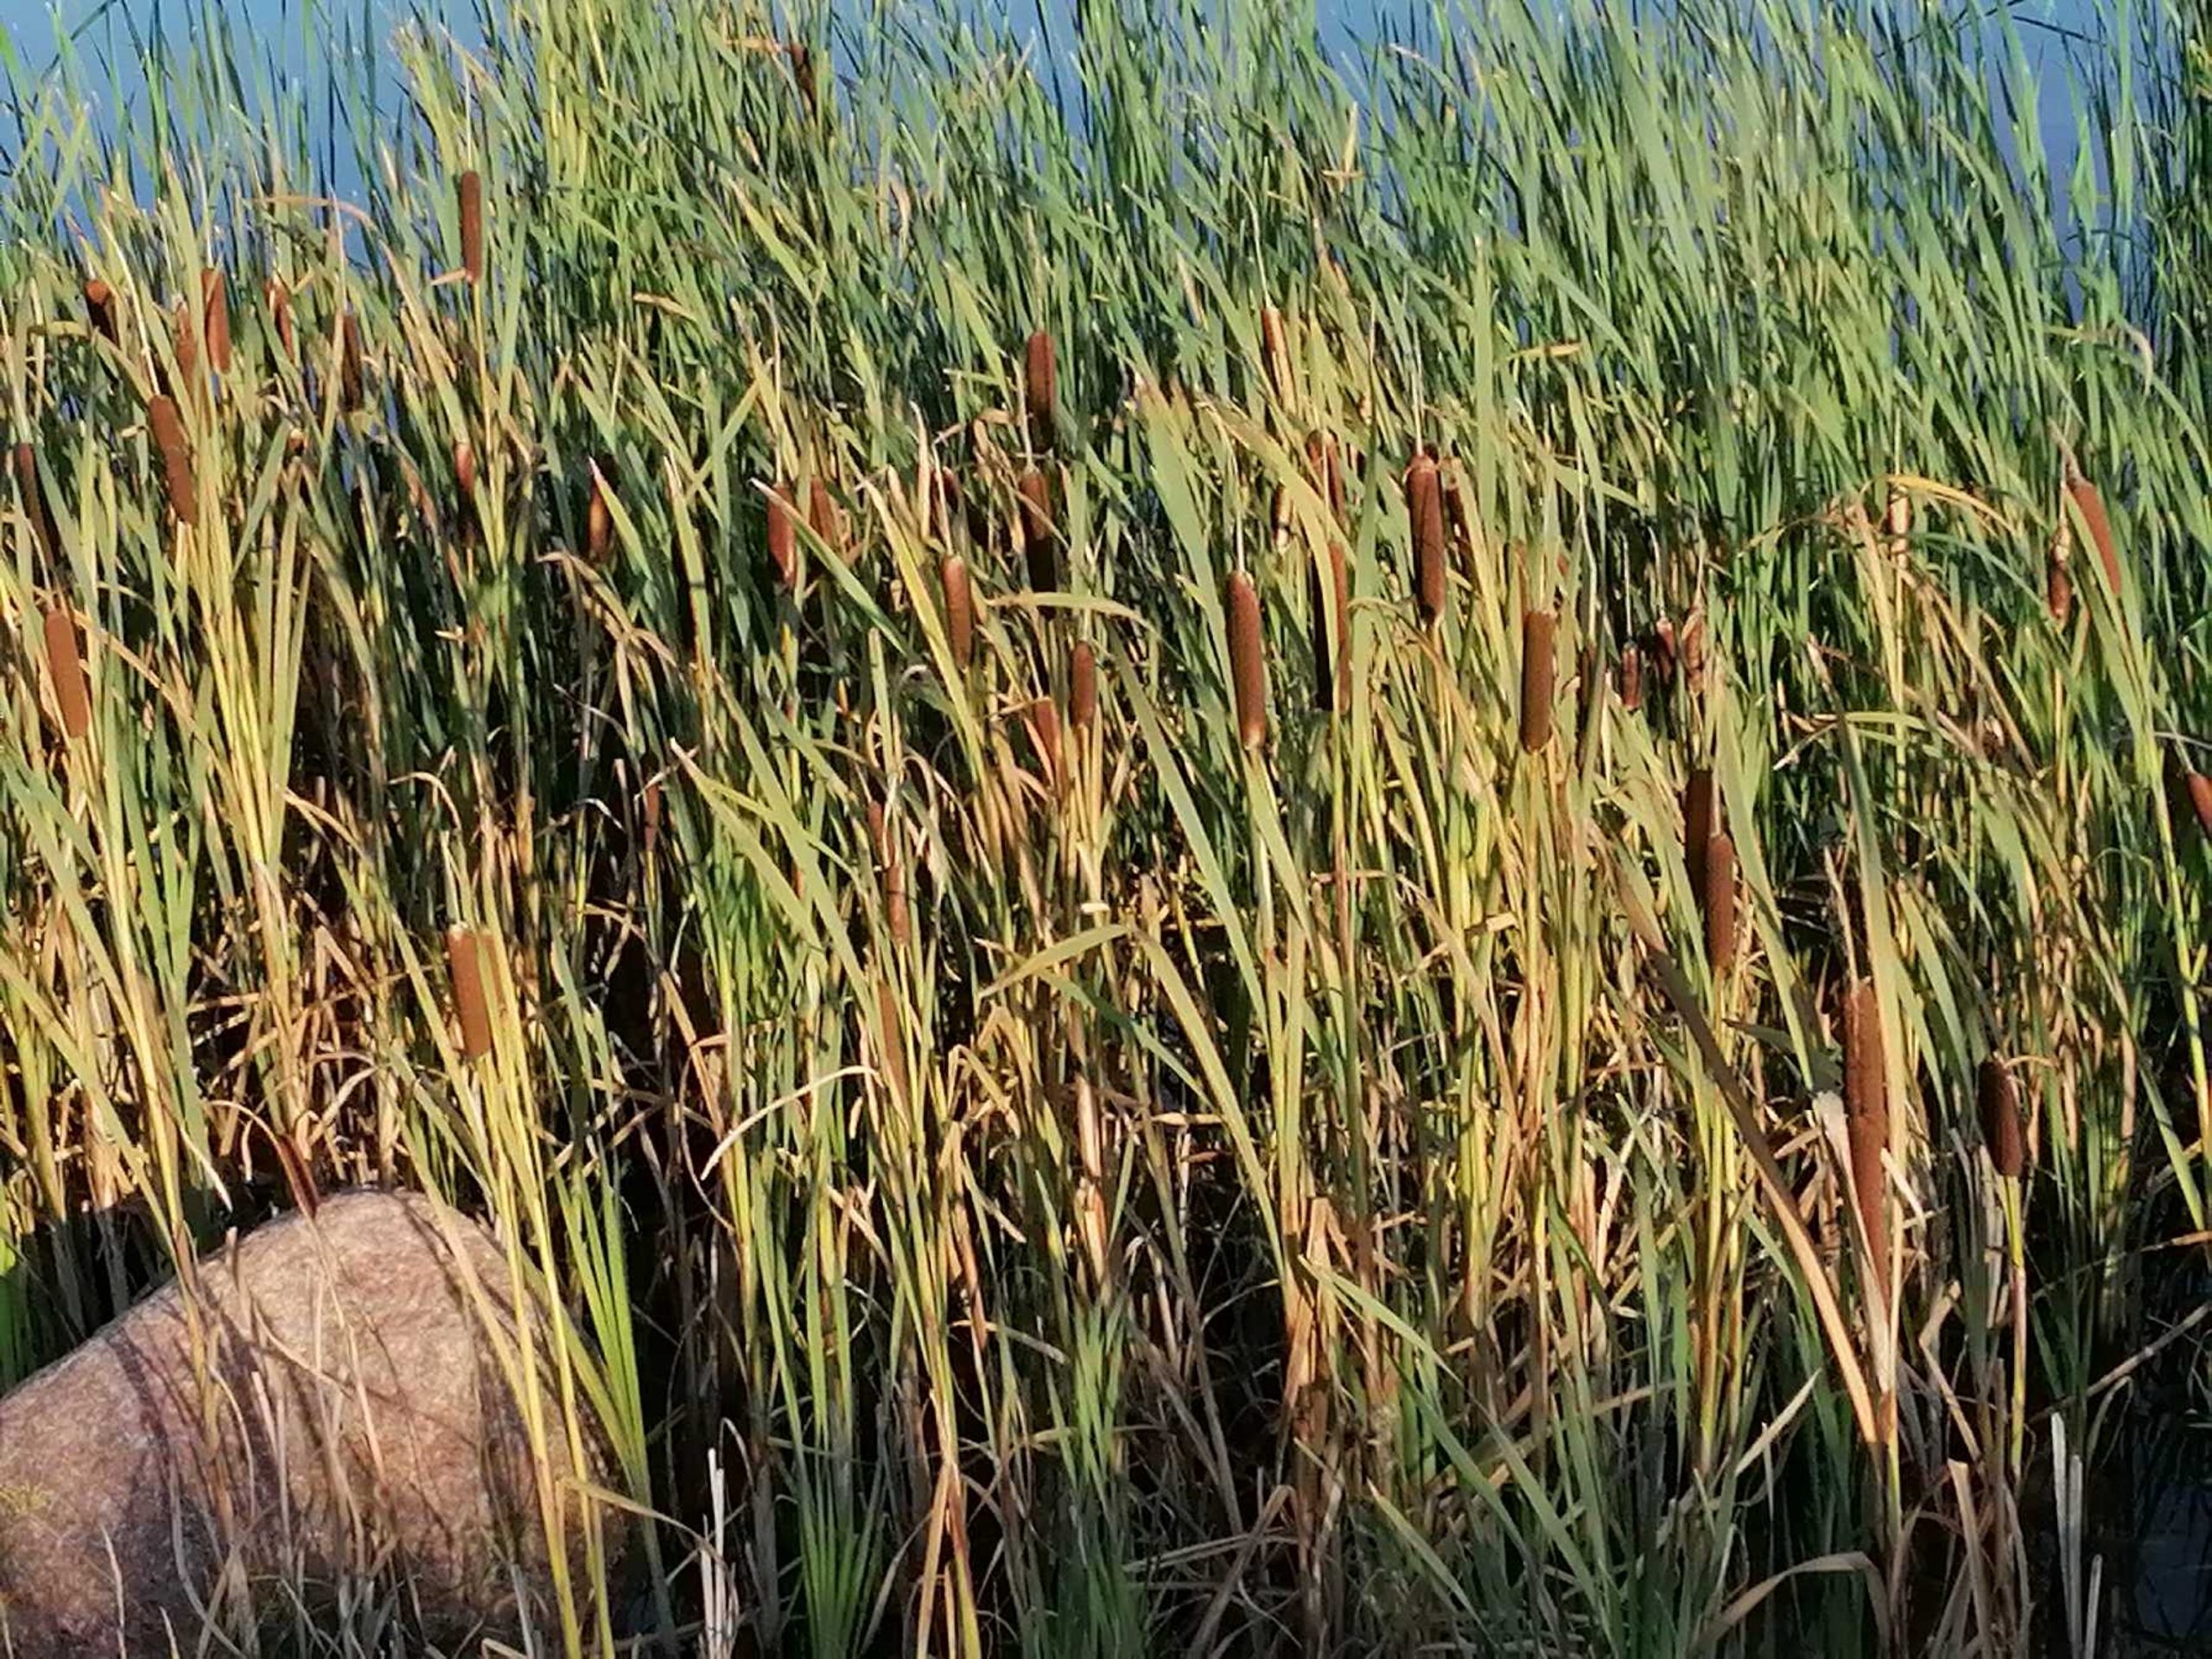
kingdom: Plantae
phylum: Tracheophyta
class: Liliopsida
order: Poales
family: Typhaceae
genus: Typha
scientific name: Typha latifolia
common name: Bredbladet dunhammer
